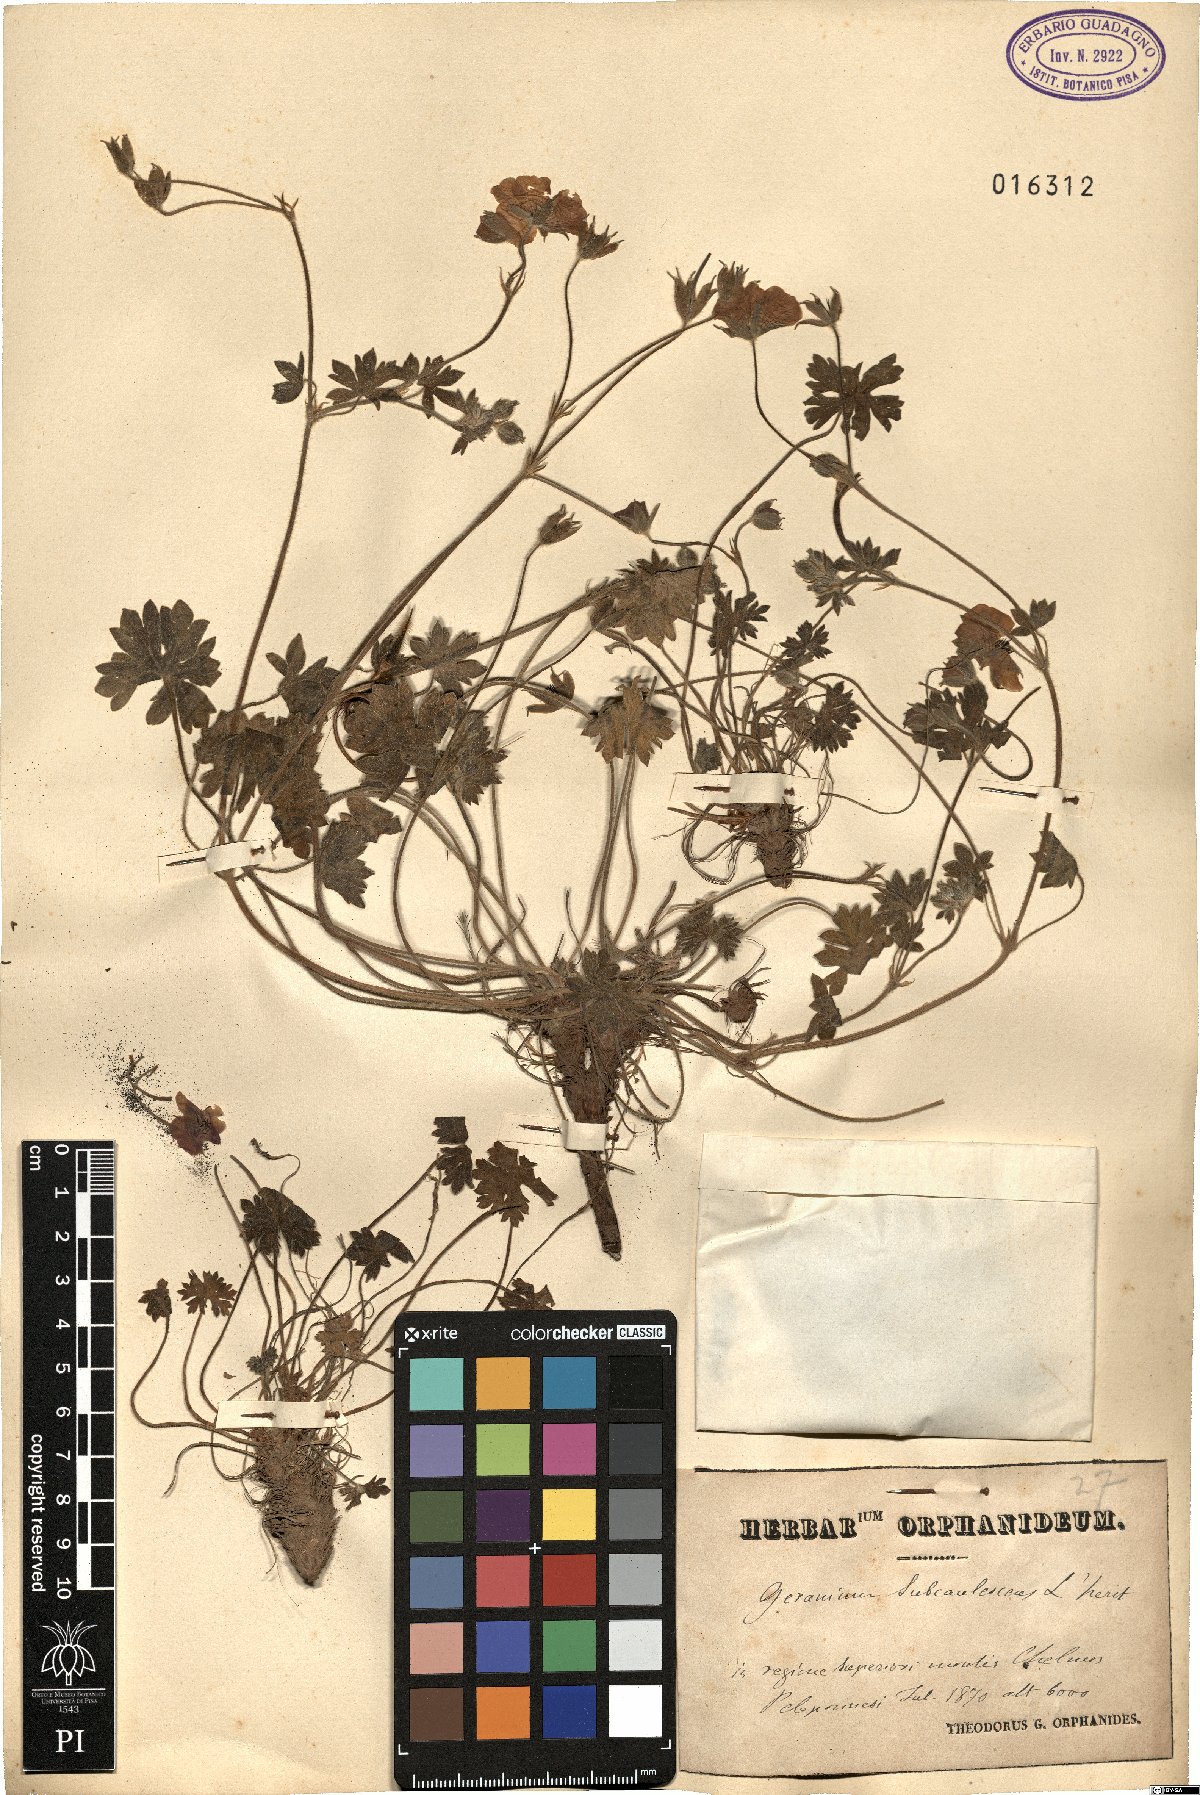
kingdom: Plantae
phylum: Tracheophyta
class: Magnoliopsida
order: Geraniales
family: Geraniaceae
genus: Geranium
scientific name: Geranium subcaulescens
